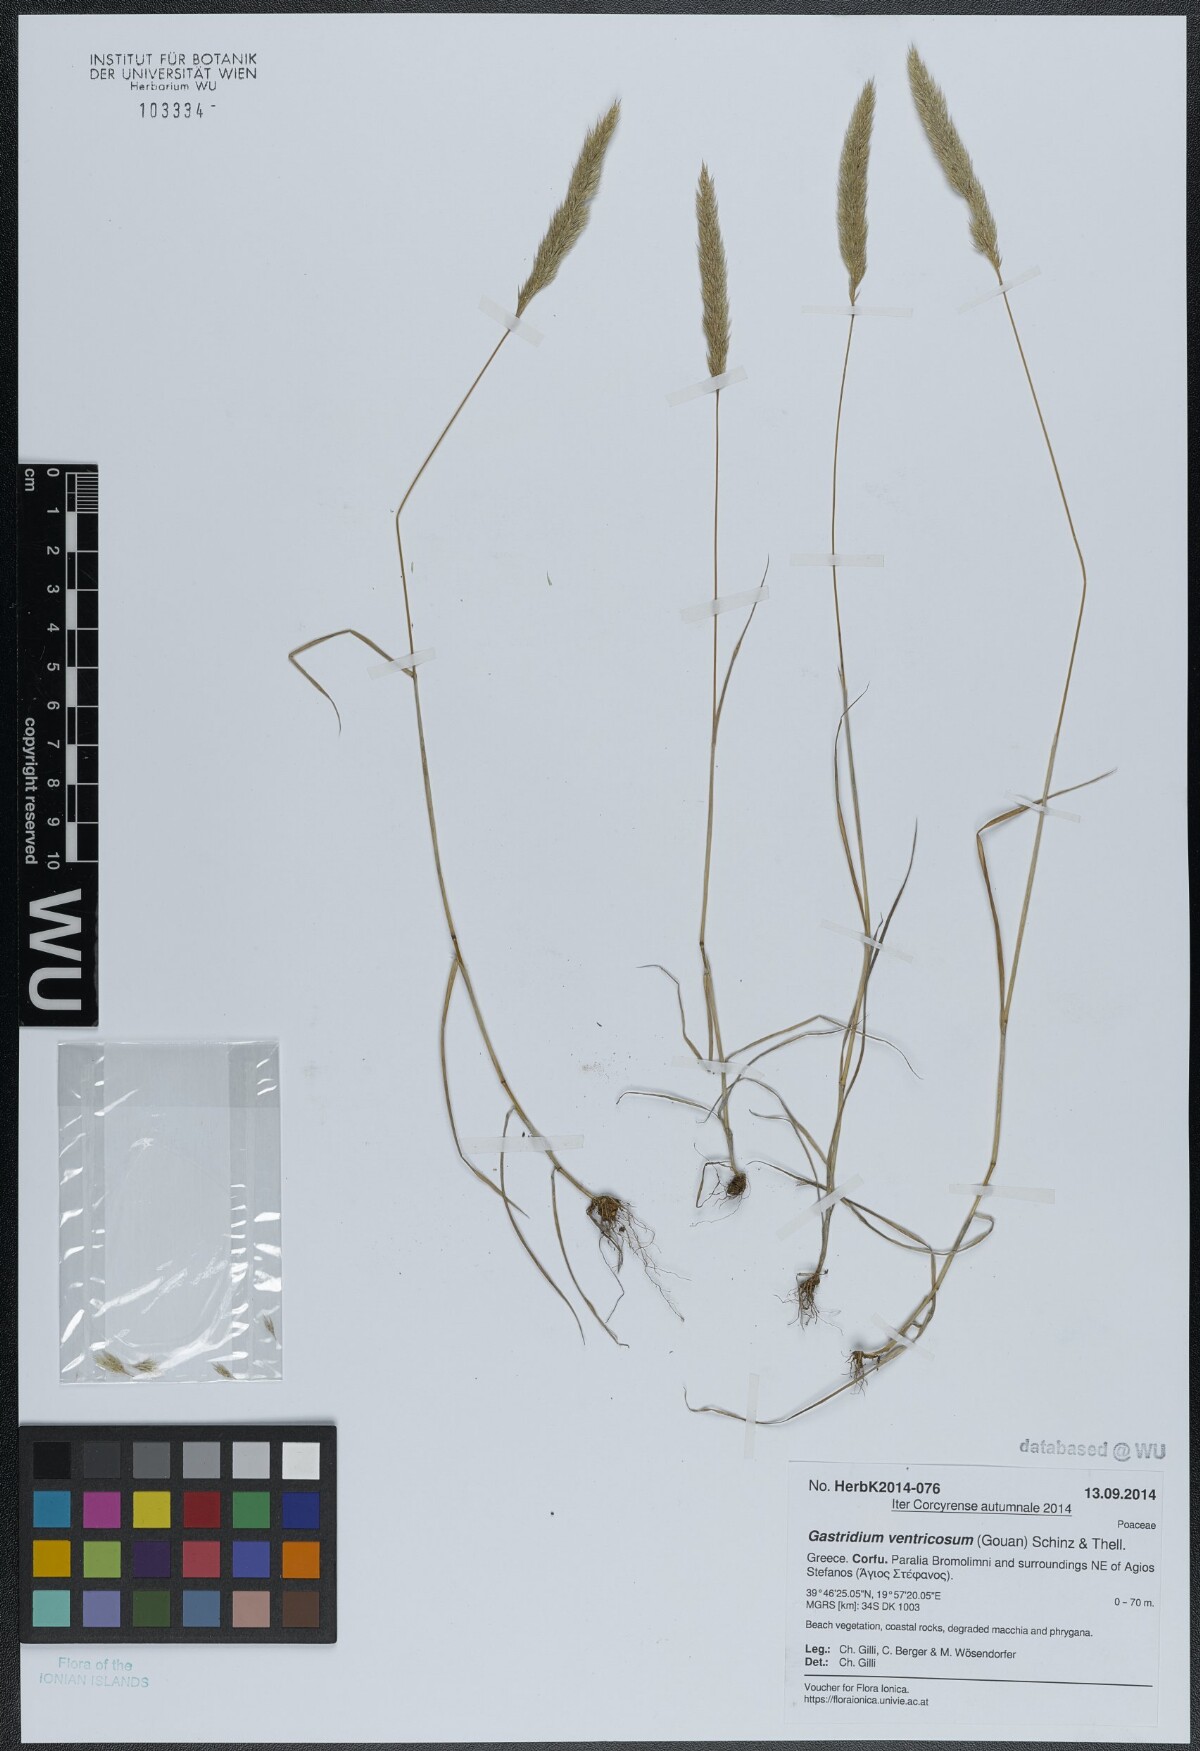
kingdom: Plantae
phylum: Tracheophyta
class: Liliopsida
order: Poales
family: Poaceae
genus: Gastridium
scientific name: Gastridium ventricosum
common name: Nit-grass
